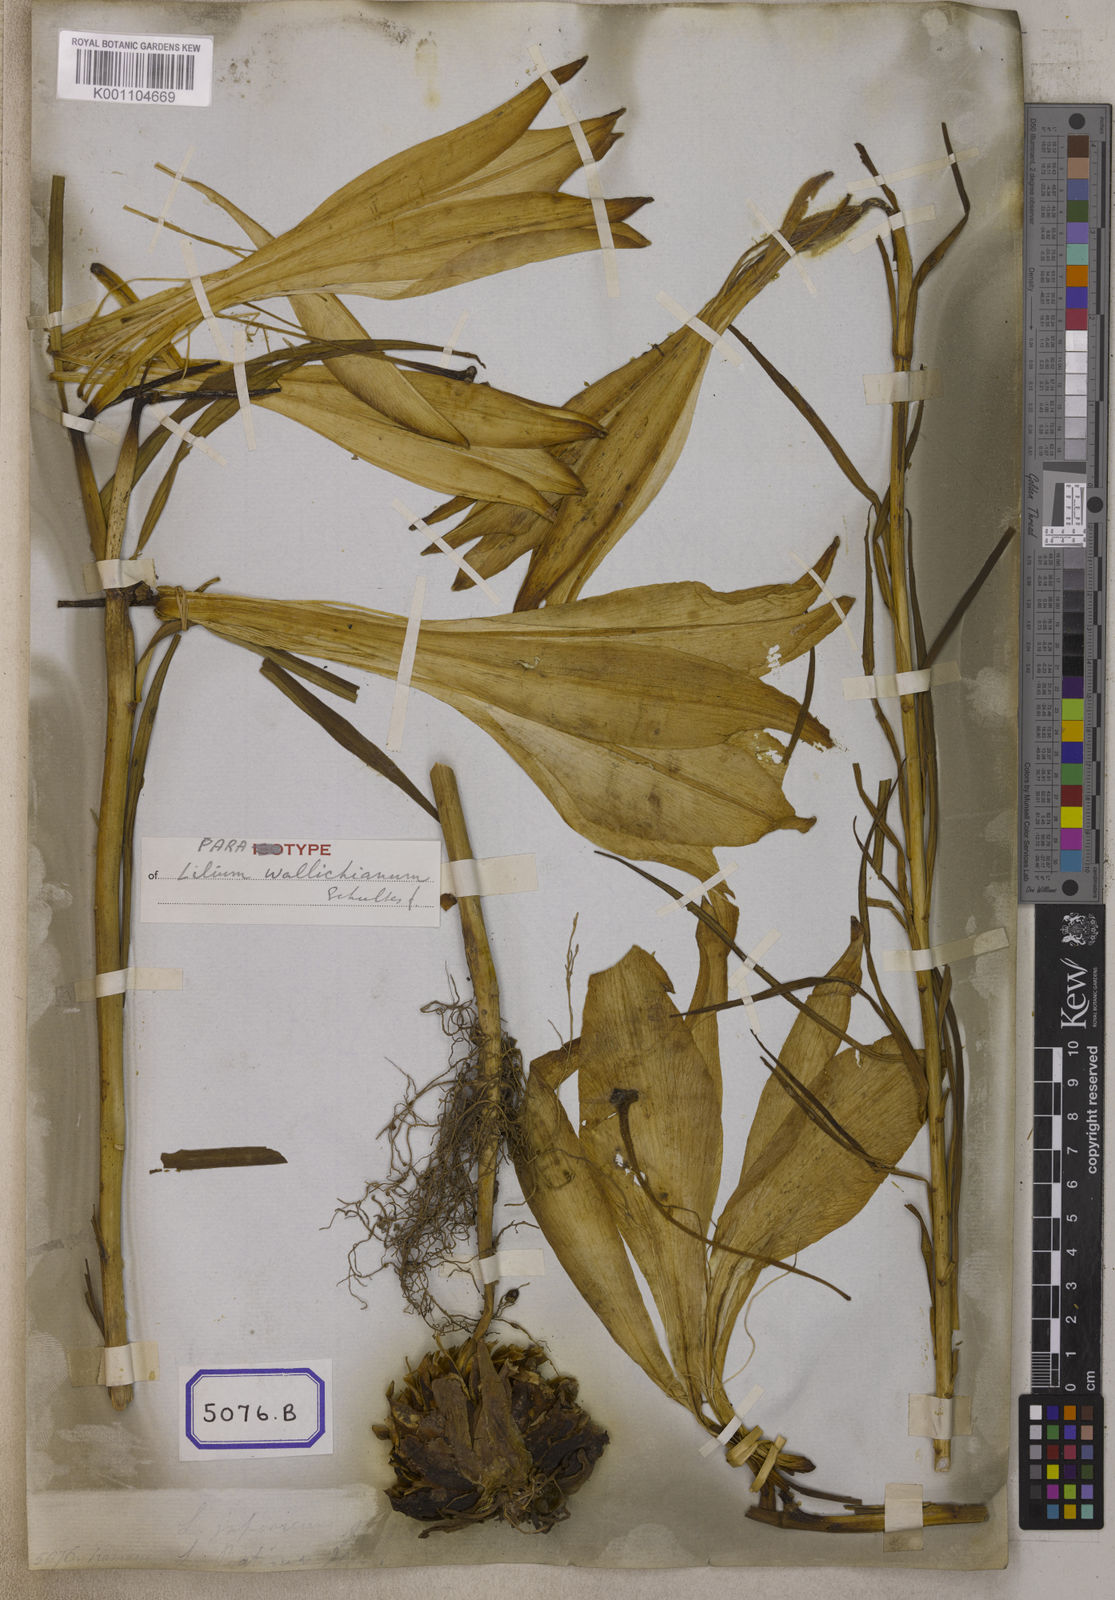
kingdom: Plantae
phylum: Tracheophyta
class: Liliopsida
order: Liliales
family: Liliaceae
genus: Lilium
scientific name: Lilium wallichianum
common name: Wallich's lily
